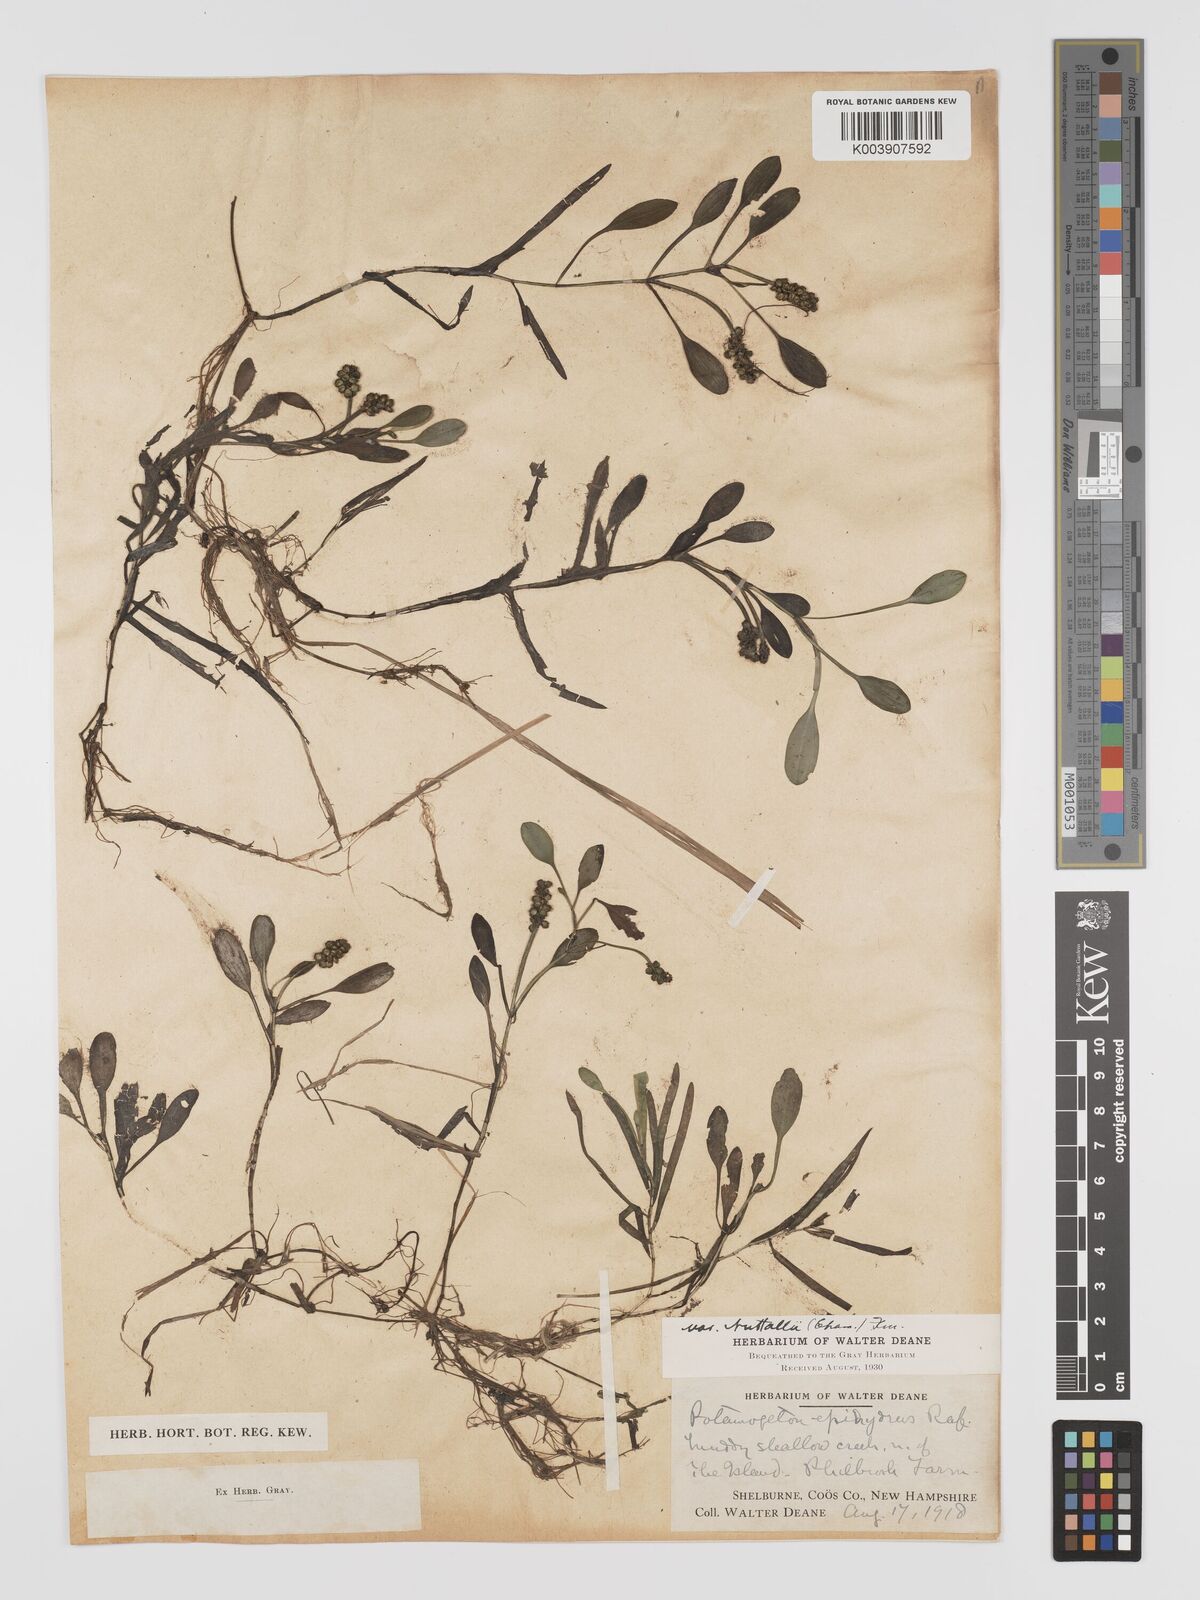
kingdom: Plantae
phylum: Tracheophyta
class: Liliopsida
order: Alismatales
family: Potamogetonaceae
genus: Potamogeton
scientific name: Potamogeton epihydrus
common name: American pondweed
